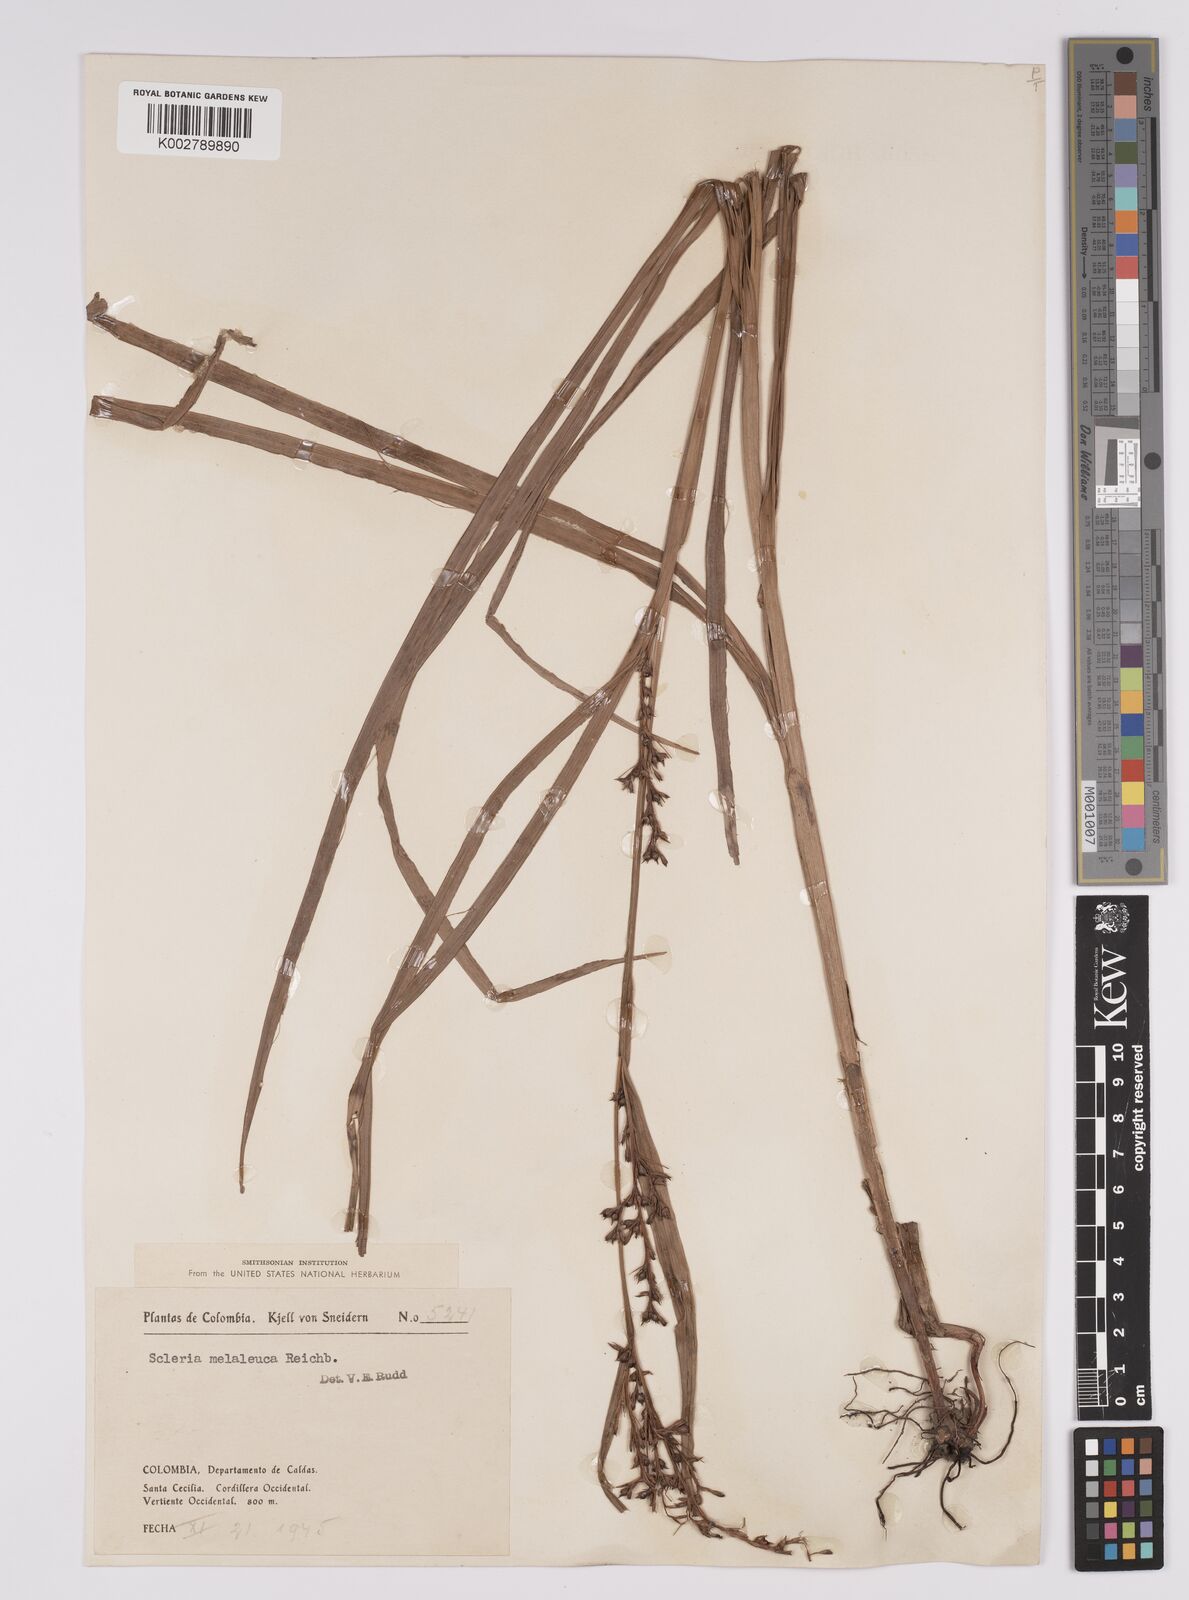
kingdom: Plantae
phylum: Tracheophyta
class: Liliopsida
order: Poales
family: Cyperaceae
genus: Scleria
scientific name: Scleria gaertneri
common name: Cortadera blanca
